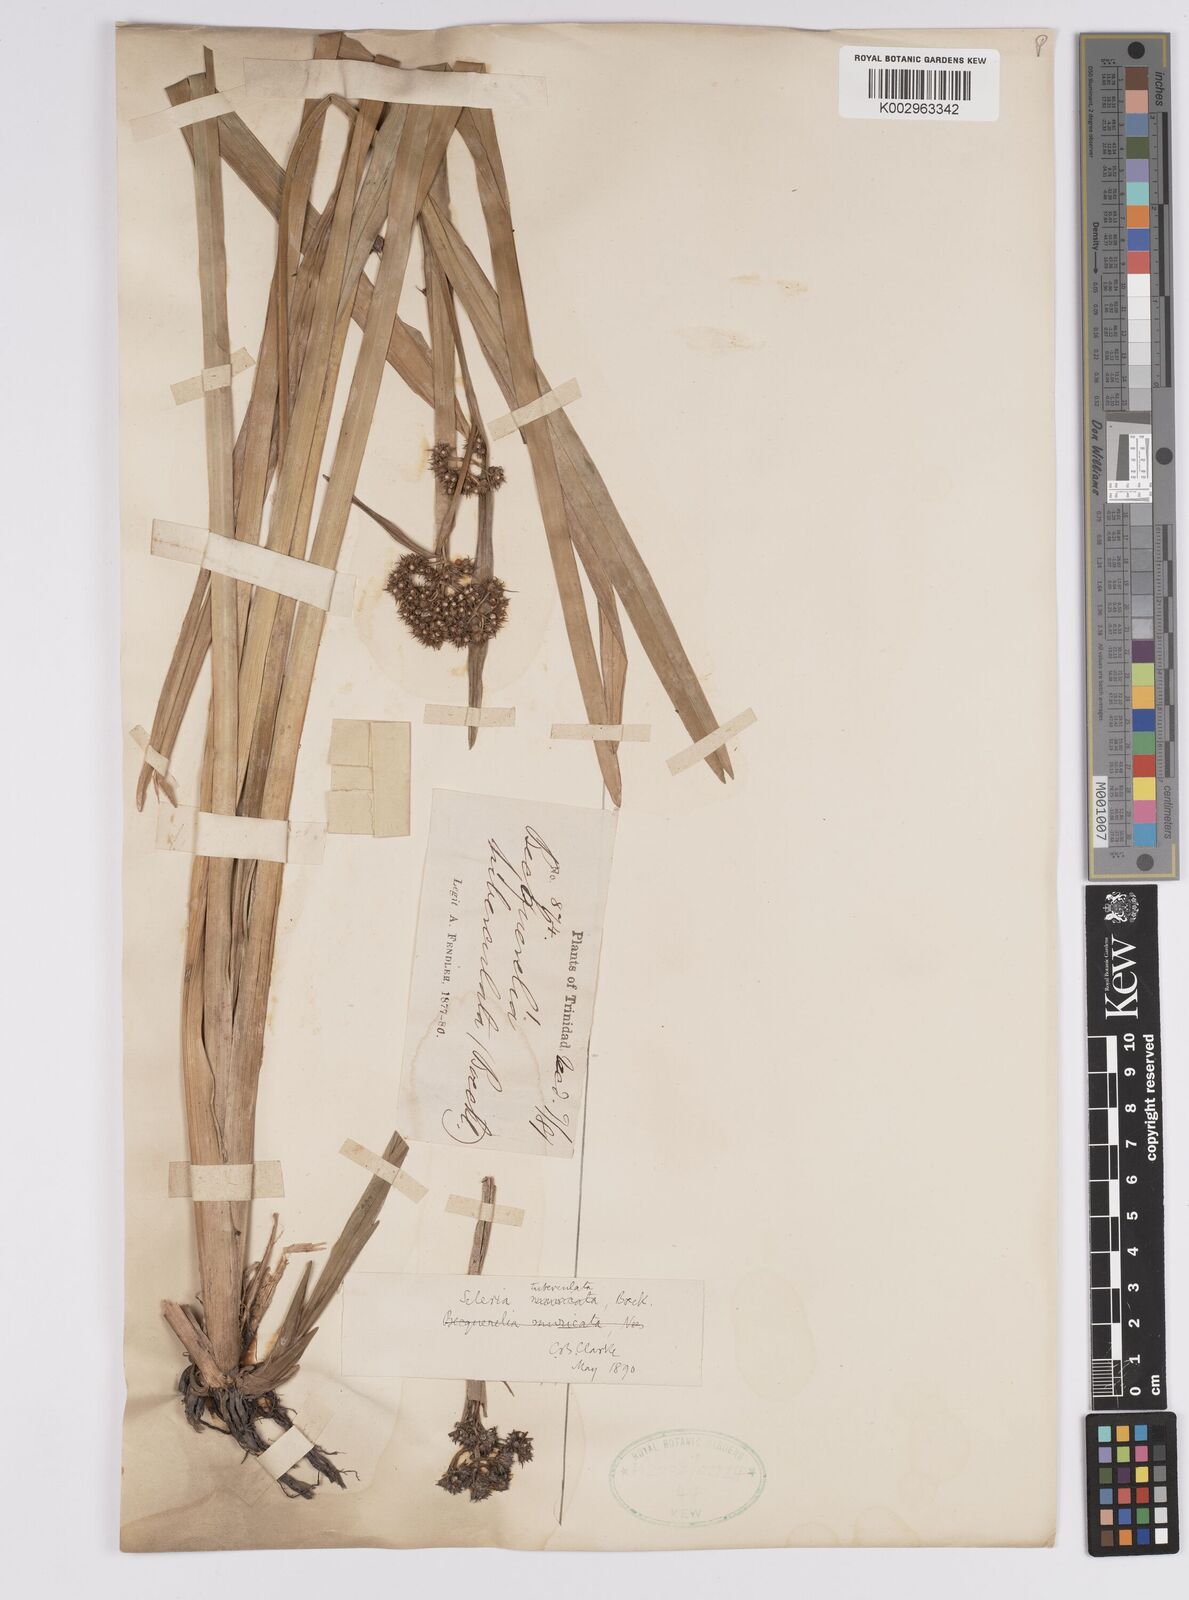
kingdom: Plantae
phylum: Tracheophyta
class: Liliopsida
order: Poales
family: Cyperaceae
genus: Becquerelia
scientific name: Becquerelia tuberculata
